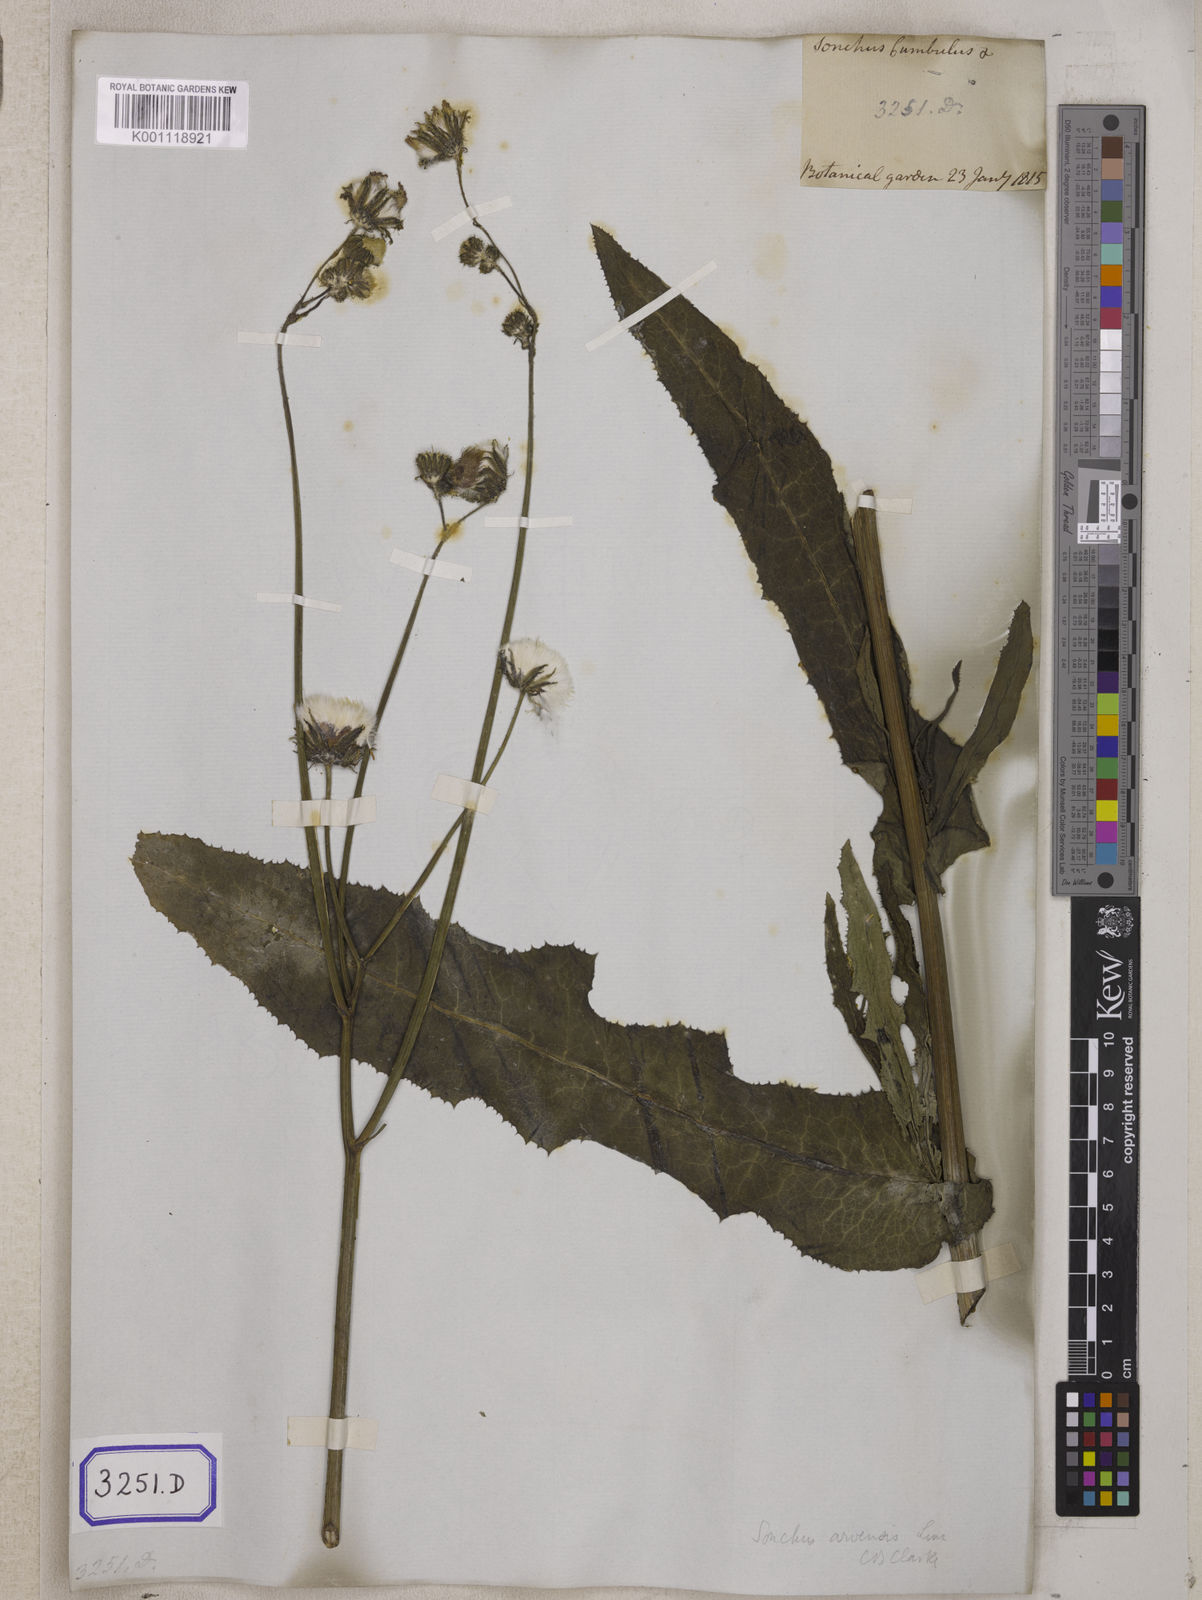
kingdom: Plantae
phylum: Tracheophyta
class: Magnoliopsida
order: Asterales
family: Asteraceae
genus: Sonchus
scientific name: Sonchus arvensis
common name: Perennial sow-thistle
